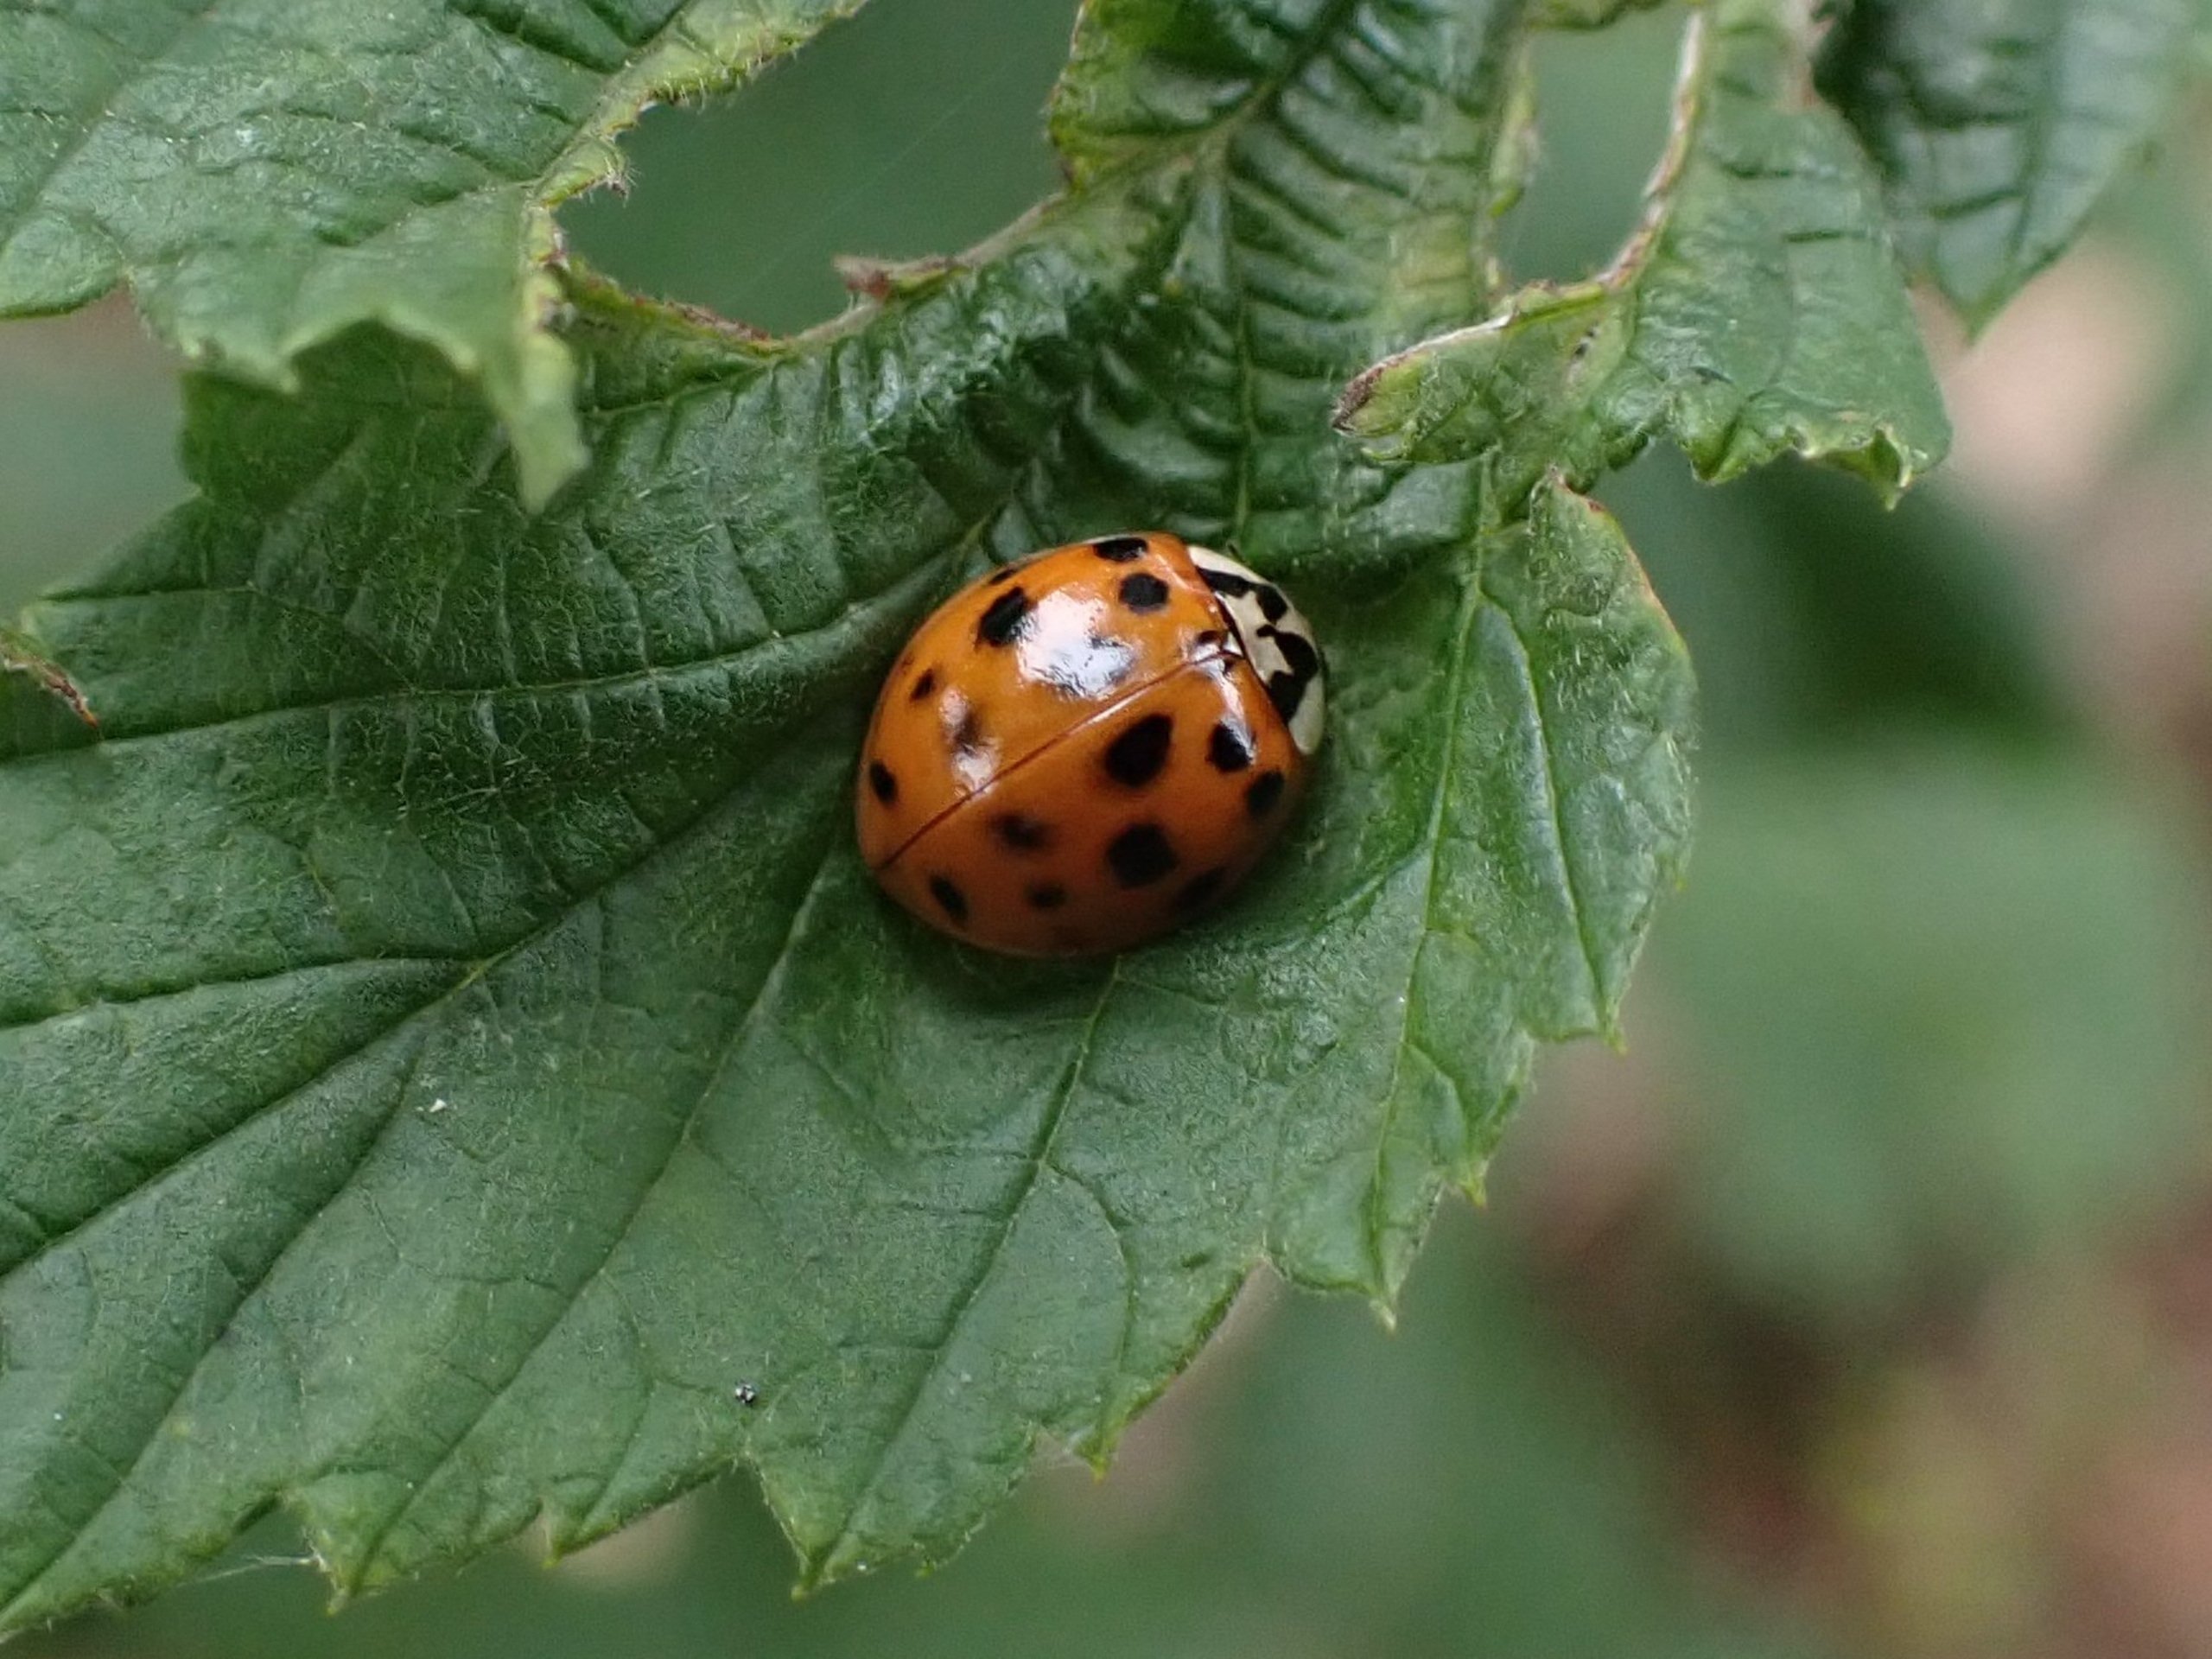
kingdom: Animalia
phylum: Arthropoda
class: Insecta
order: Coleoptera
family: Coccinellidae
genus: Harmonia
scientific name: Harmonia axyridis
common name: Harlekinmariehøne
